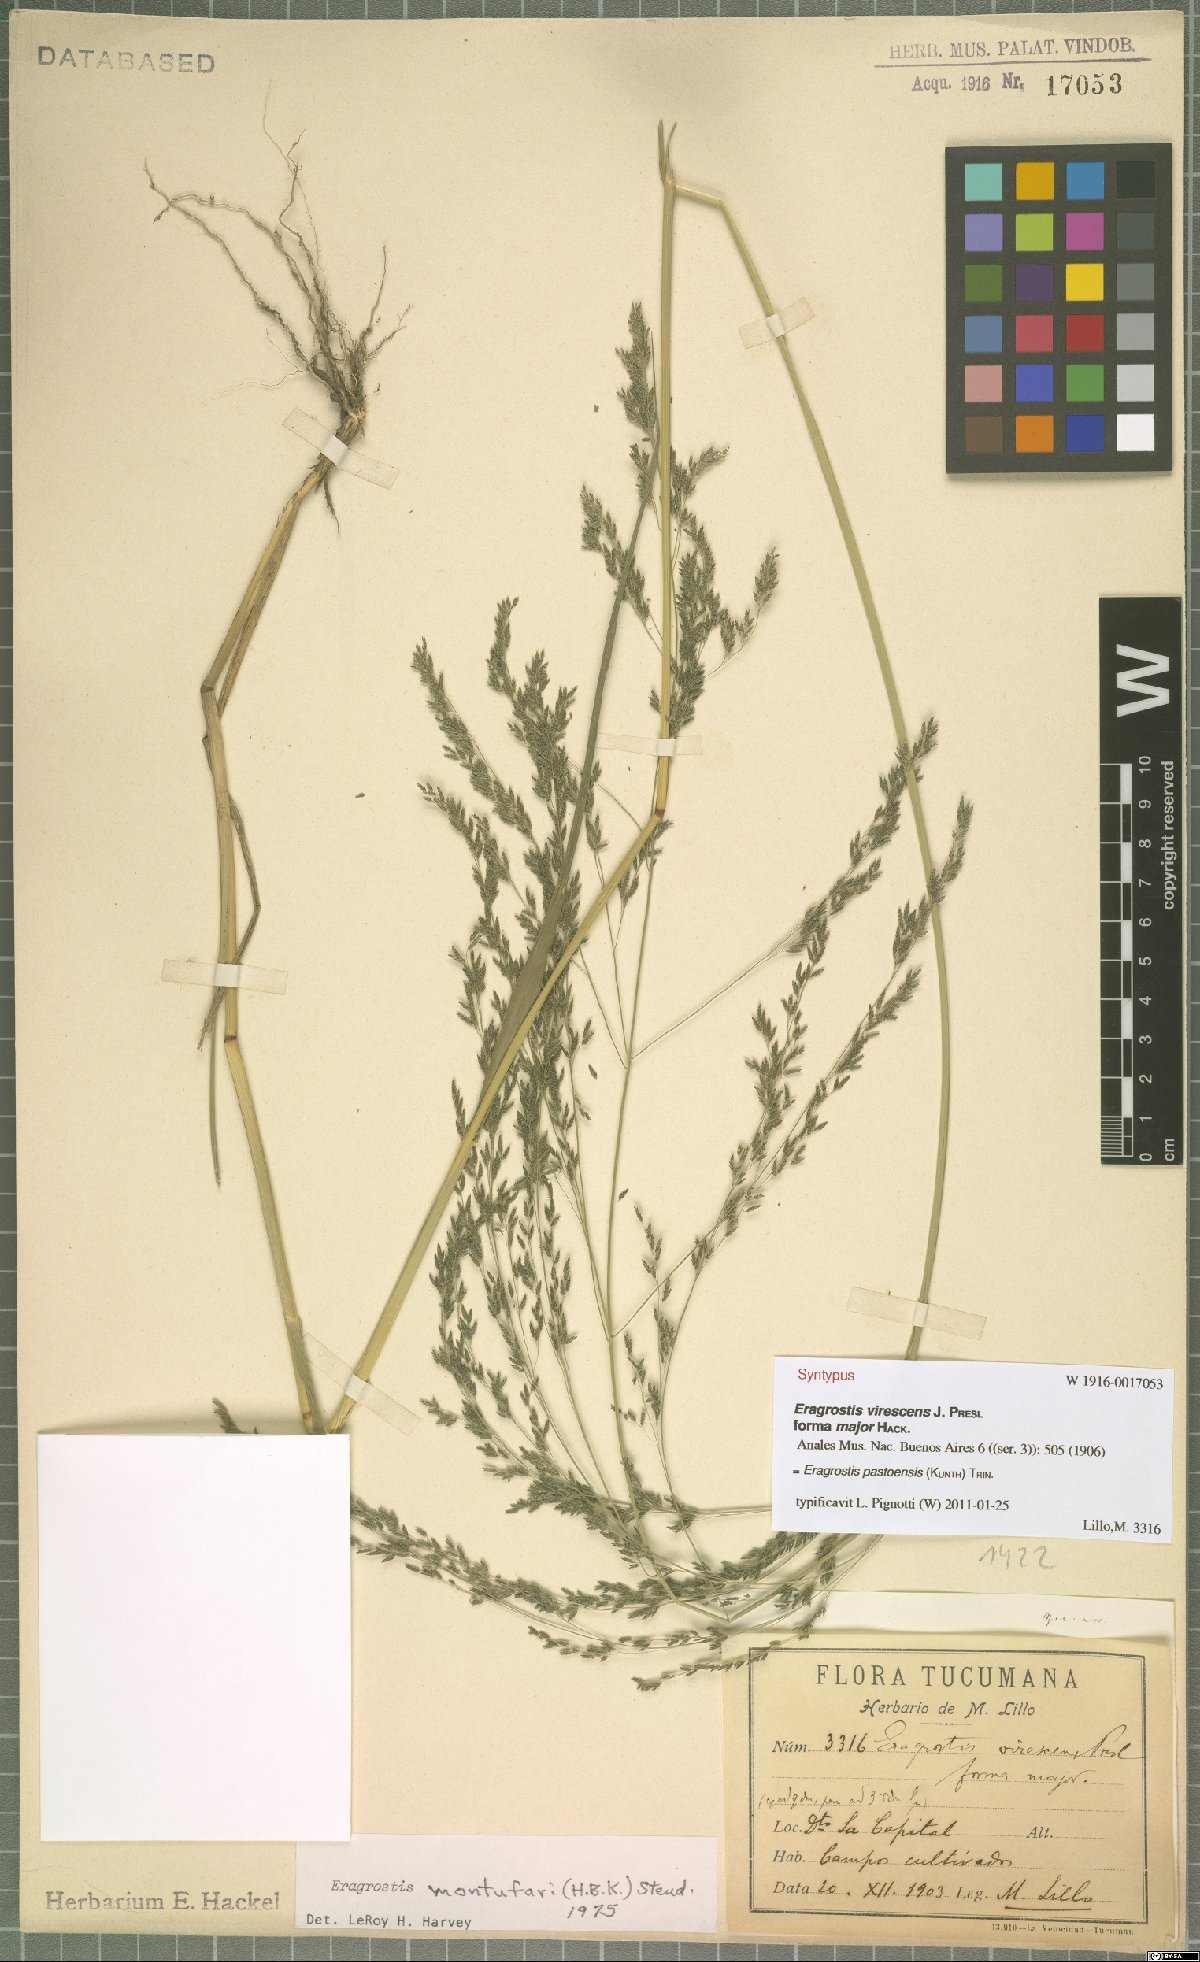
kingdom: Plantae
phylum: Tracheophyta
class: Liliopsida
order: Poales
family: Poaceae
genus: Eragrostis
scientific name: Eragrostis pastoensis
